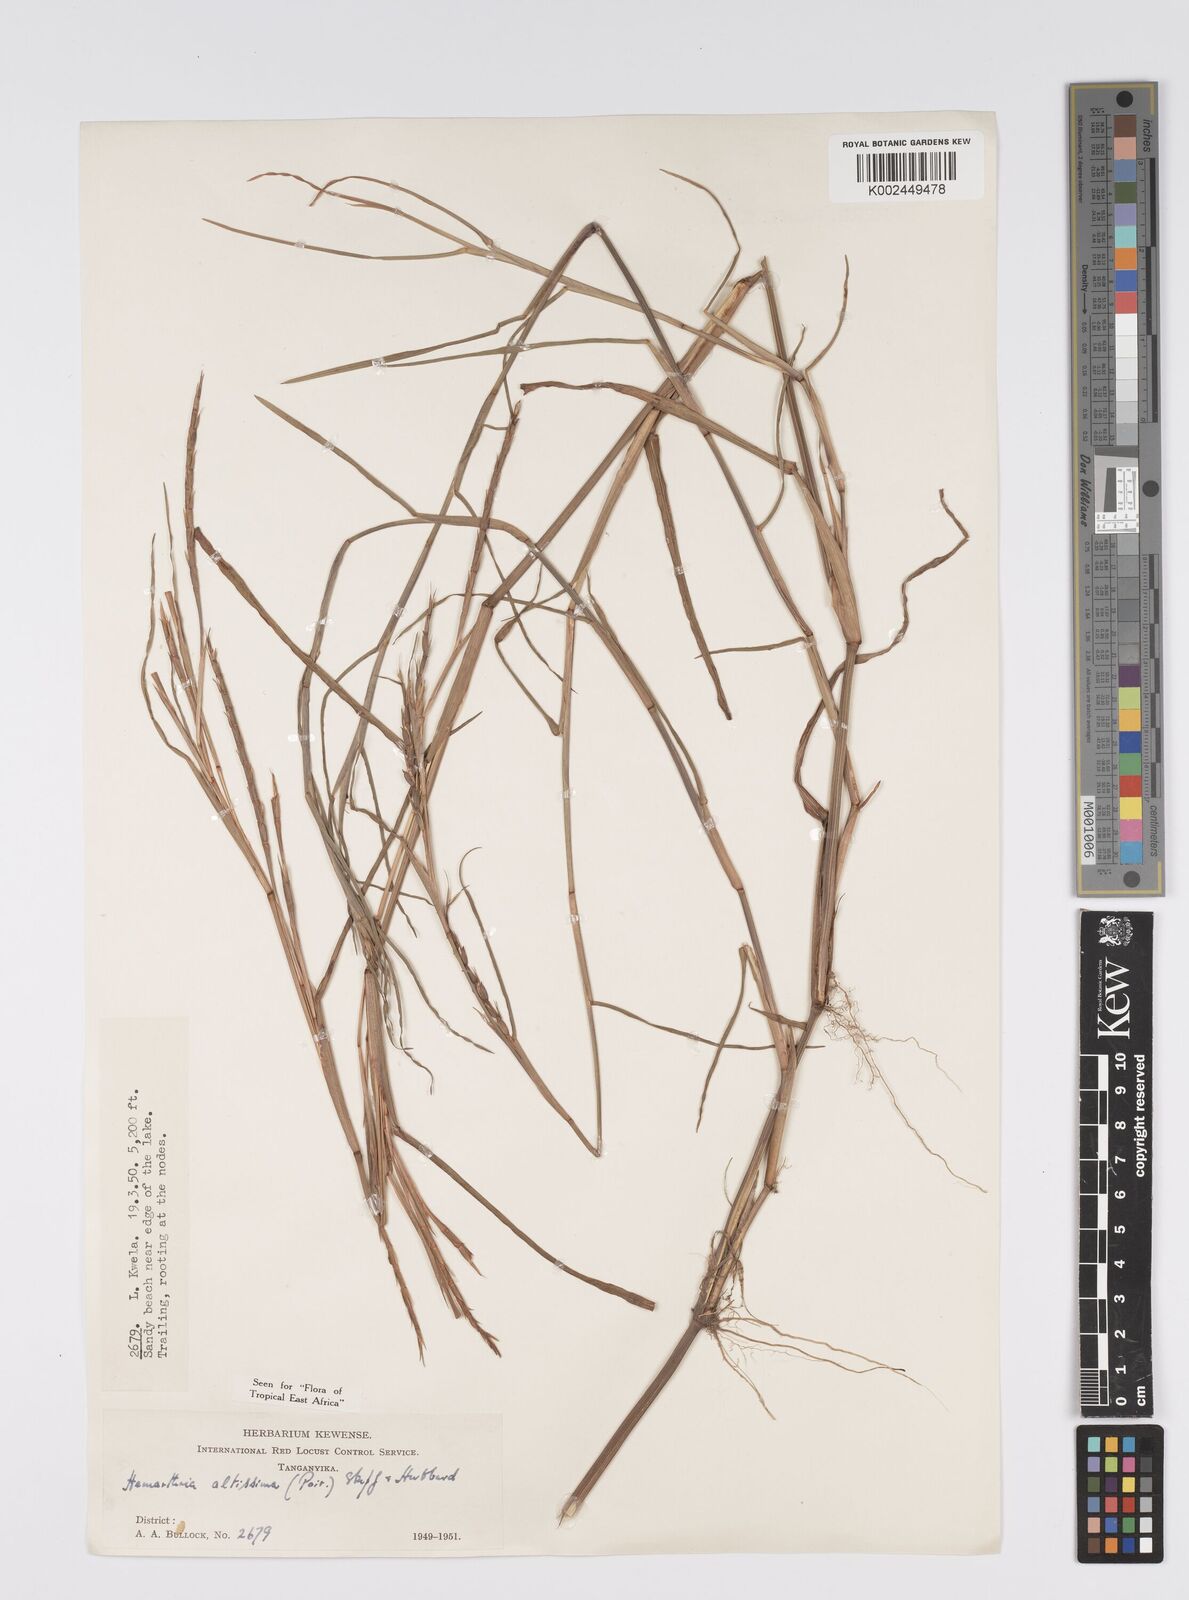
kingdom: Plantae
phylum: Tracheophyta
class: Liliopsida
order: Poales
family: Poaceae
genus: Hemarthria
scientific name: Hemarthria altissima
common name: African jointgrass
